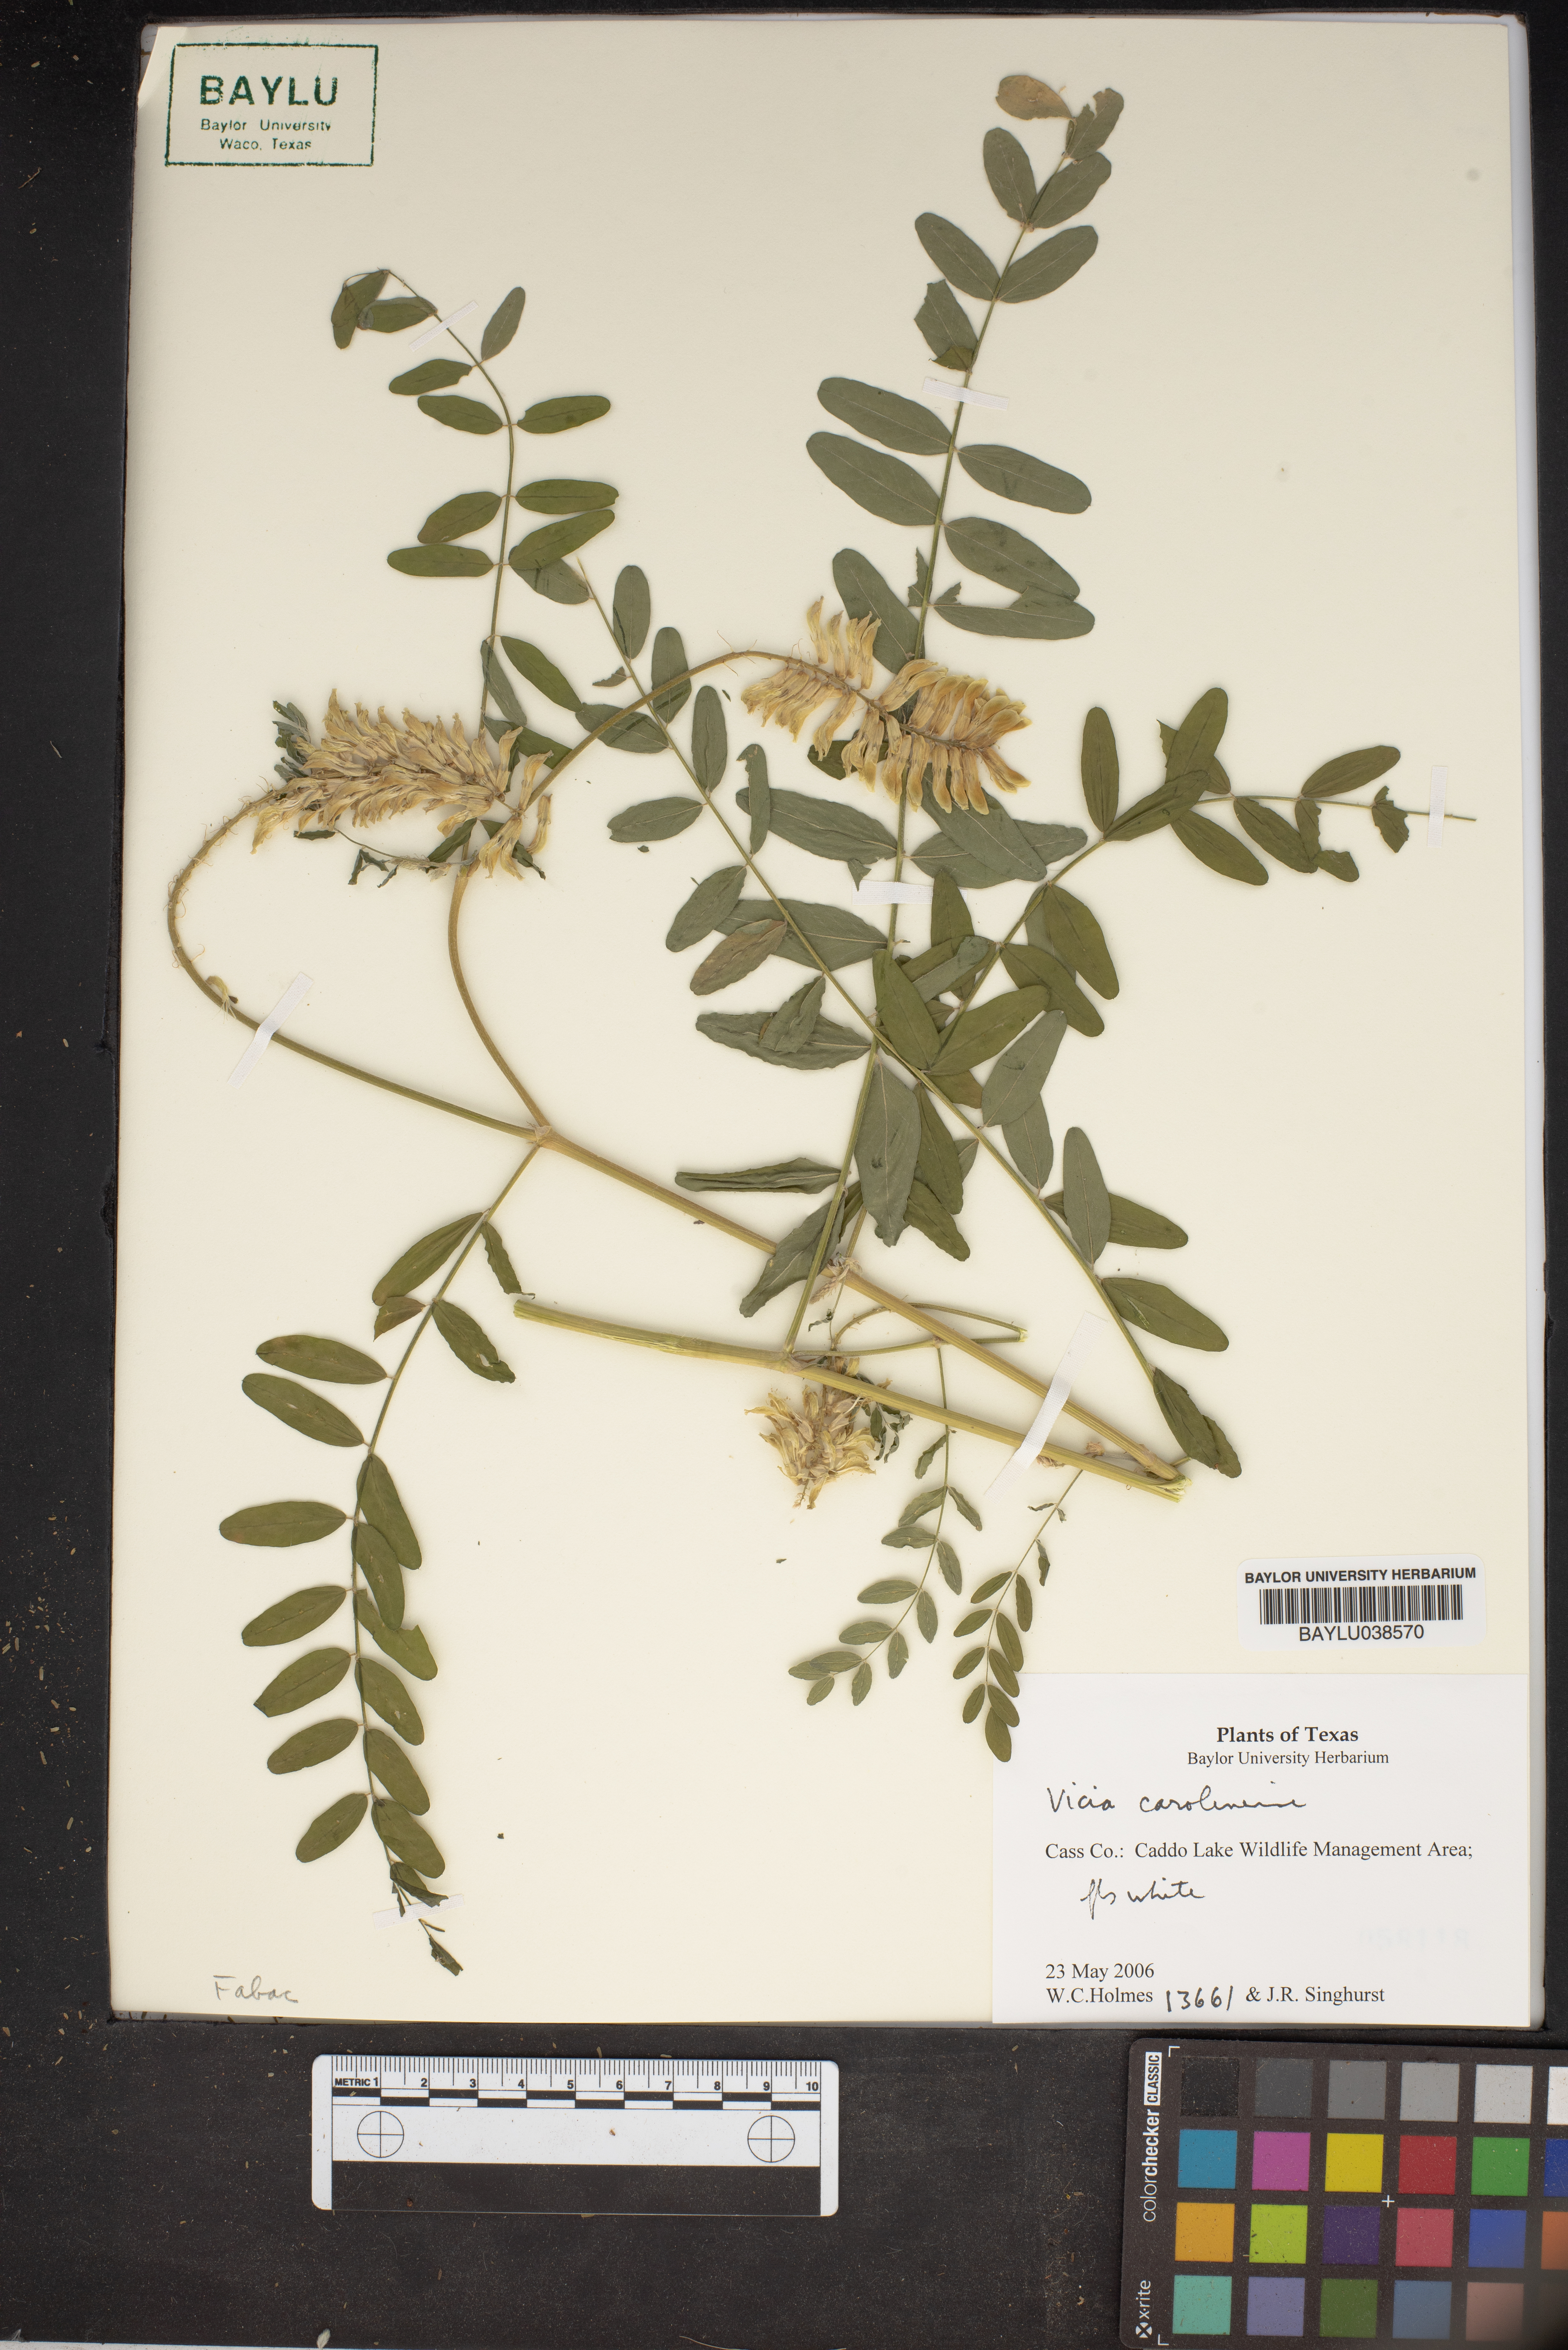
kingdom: Plantae
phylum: Tracheophyta
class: Magnoliopsida
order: Fabales
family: Fabaceae
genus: Vicia
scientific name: Vicia caroliniana
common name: Carolina vetch
